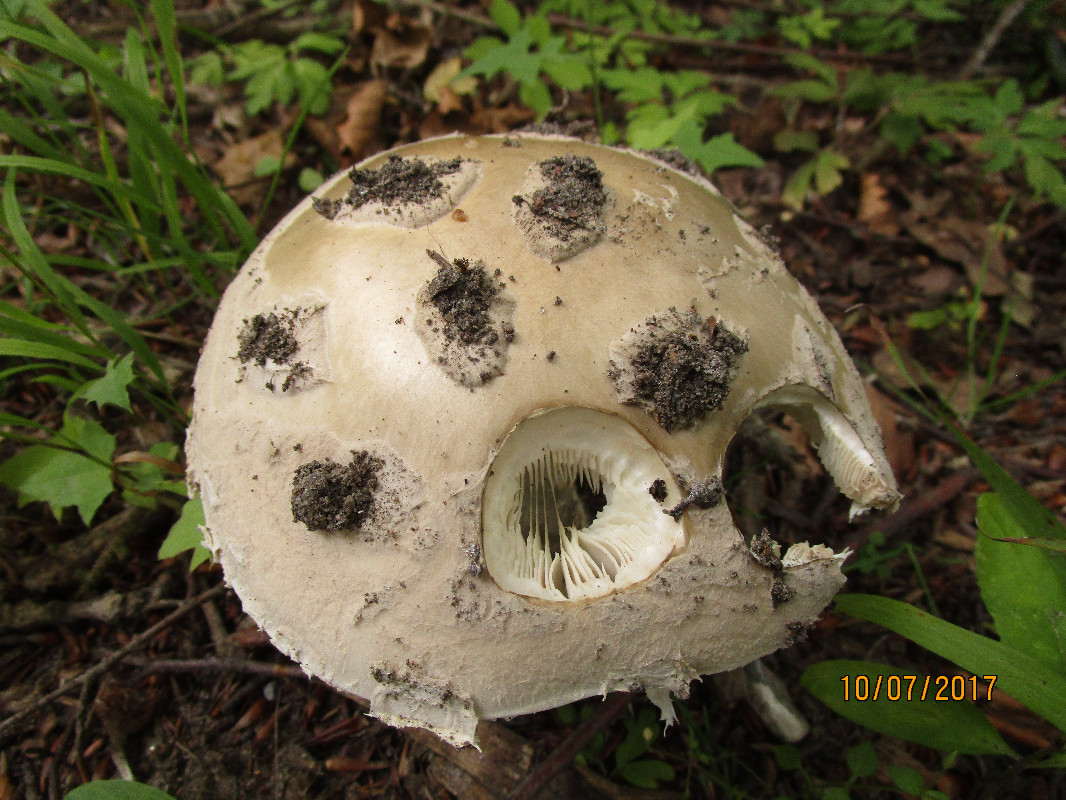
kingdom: Fungi
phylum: Basidiomycota
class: Agaricomycetes
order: Agaricales
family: Amanitaceae
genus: Amanita
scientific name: Amanita
